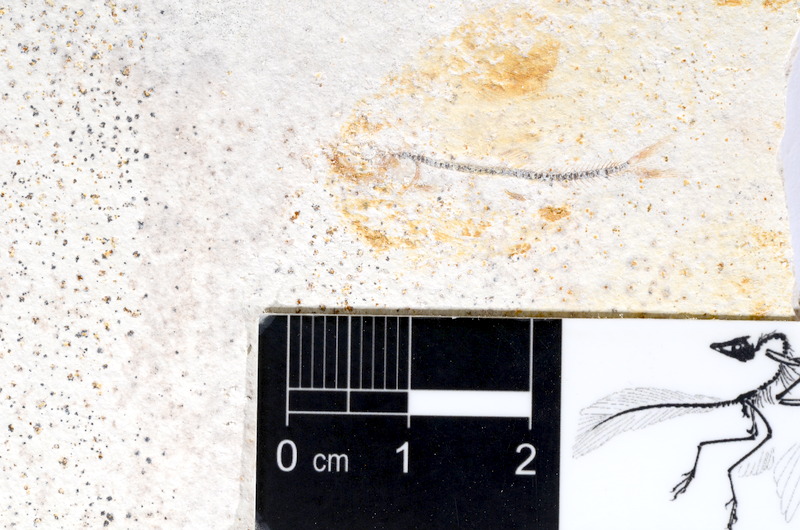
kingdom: Animalia
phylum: Chordata
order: Salmoniformes
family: Orthogonikleithridae
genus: Orthogonikleithrus
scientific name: Orthogonikleithrus hoelli
